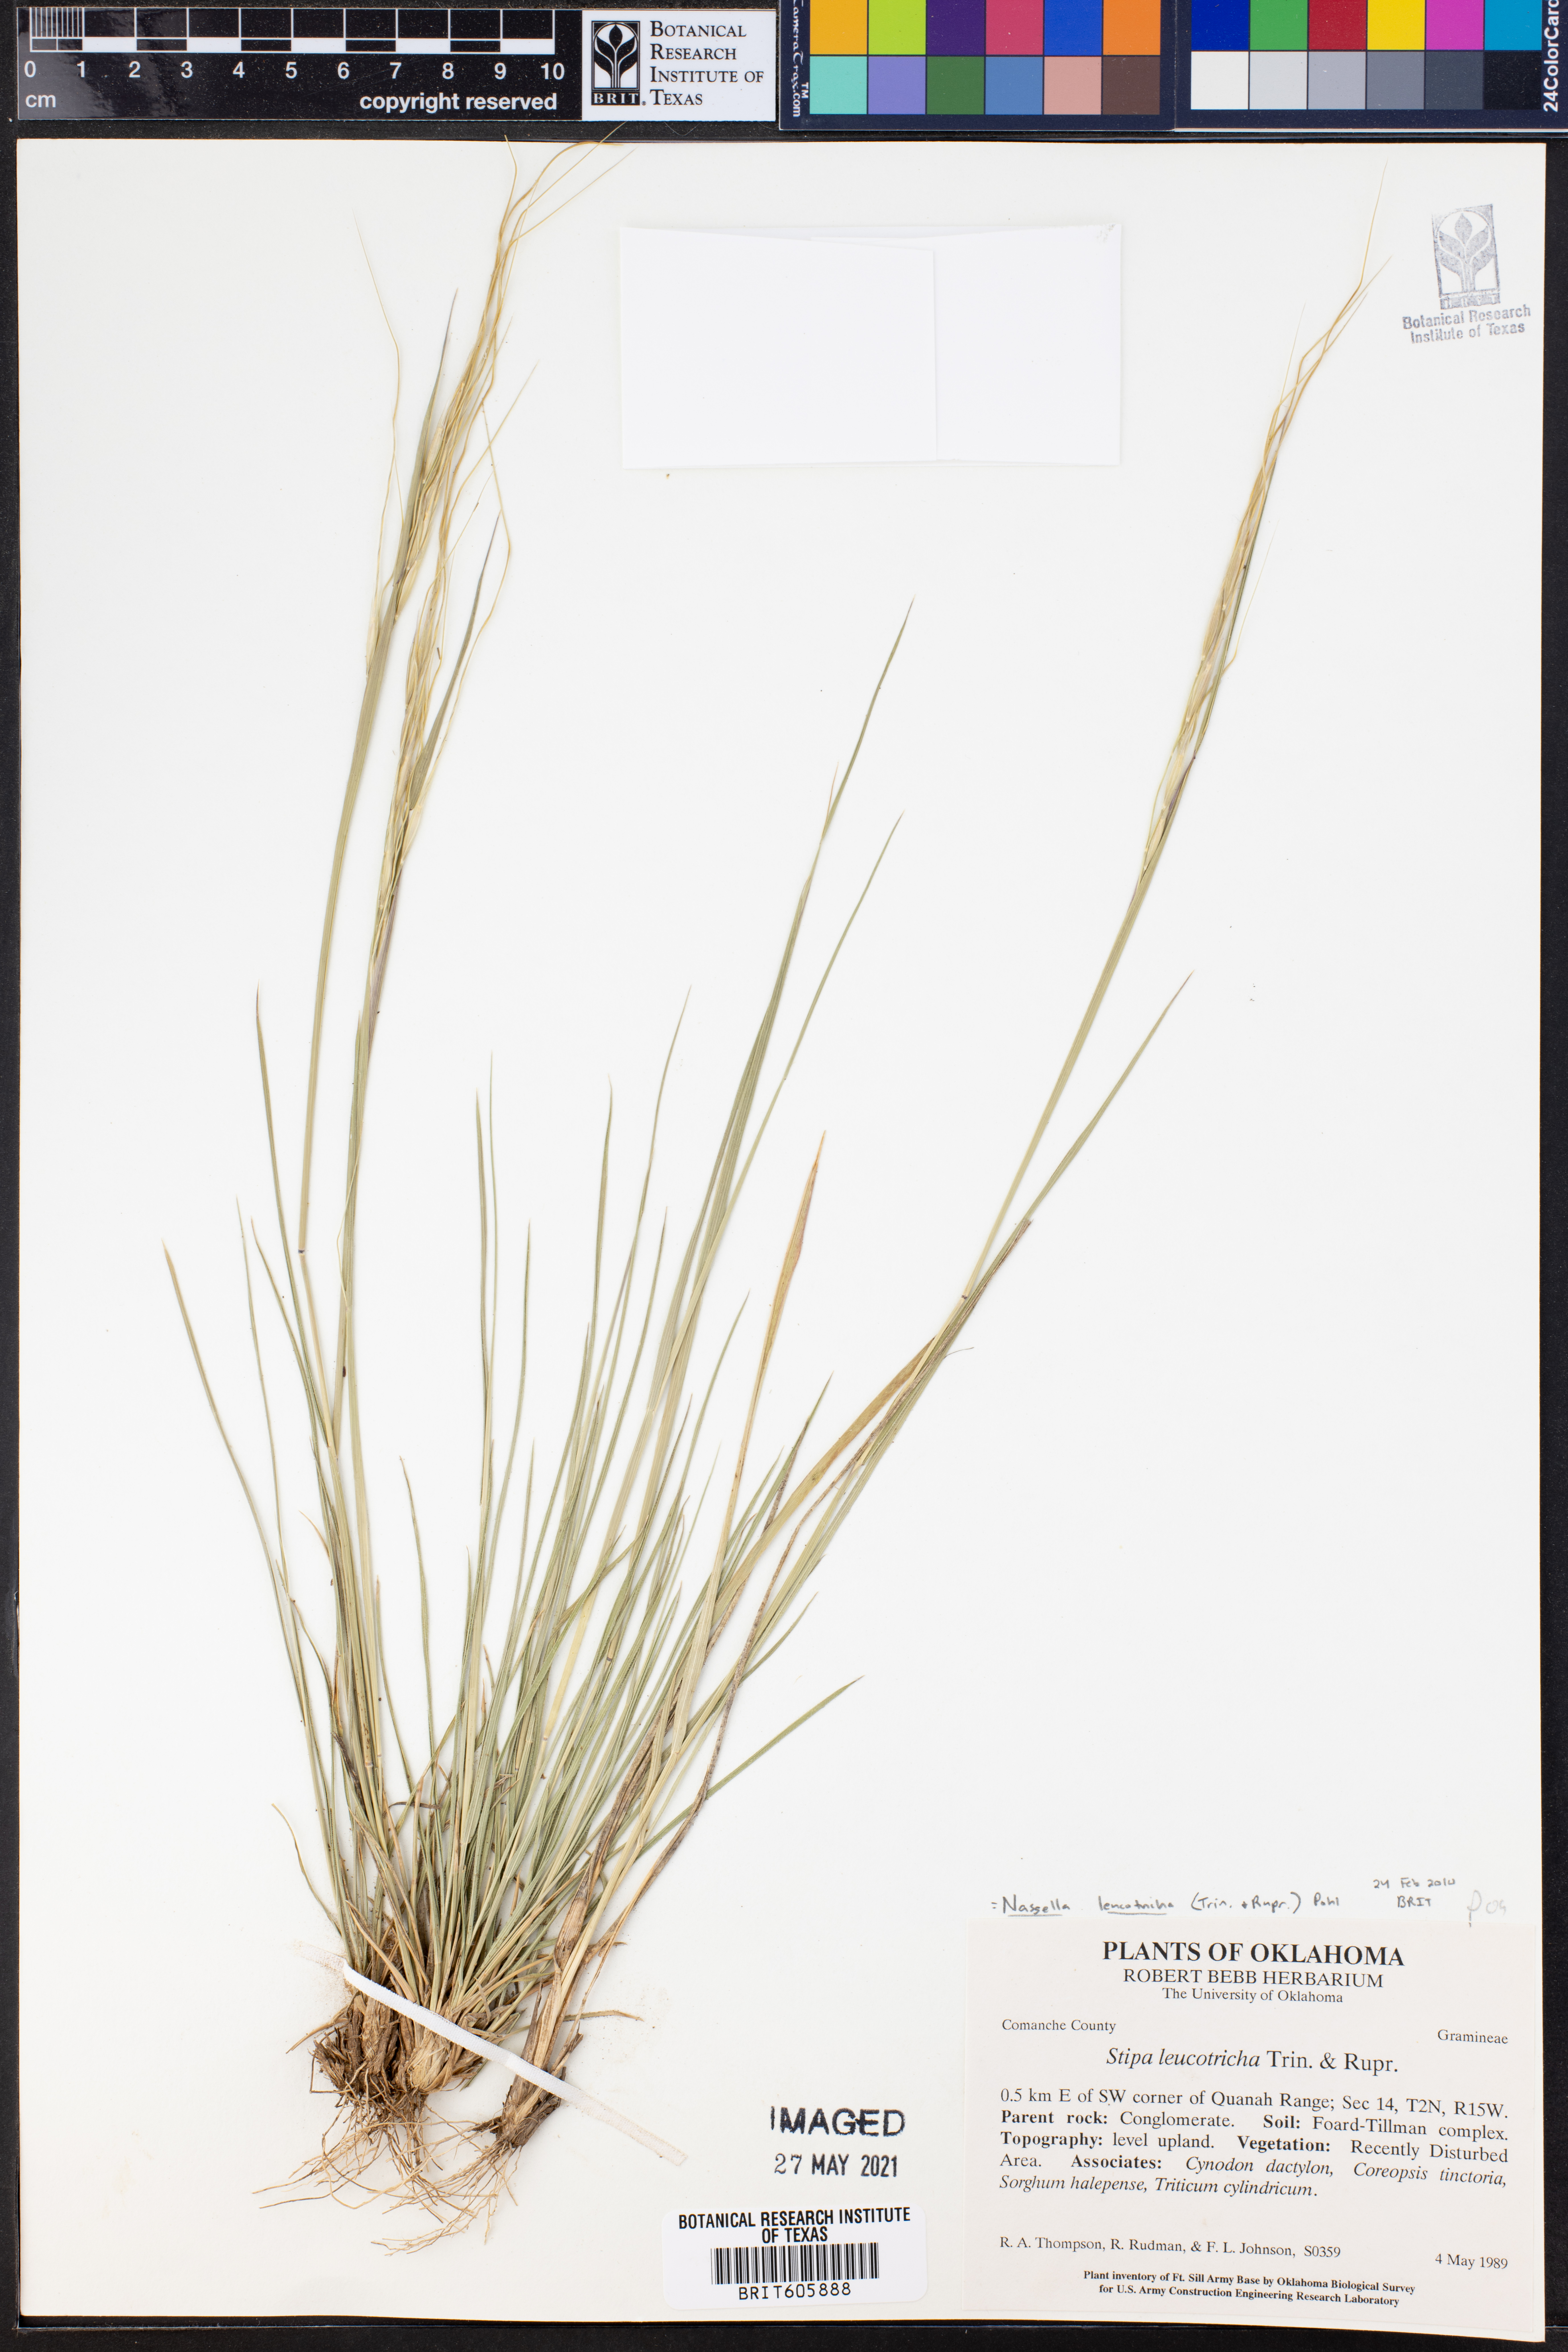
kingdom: Plantae
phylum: Tracheophyta
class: Liliopsida
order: Poales
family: Poaceae
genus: Nassella
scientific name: Nassella leucotricha
